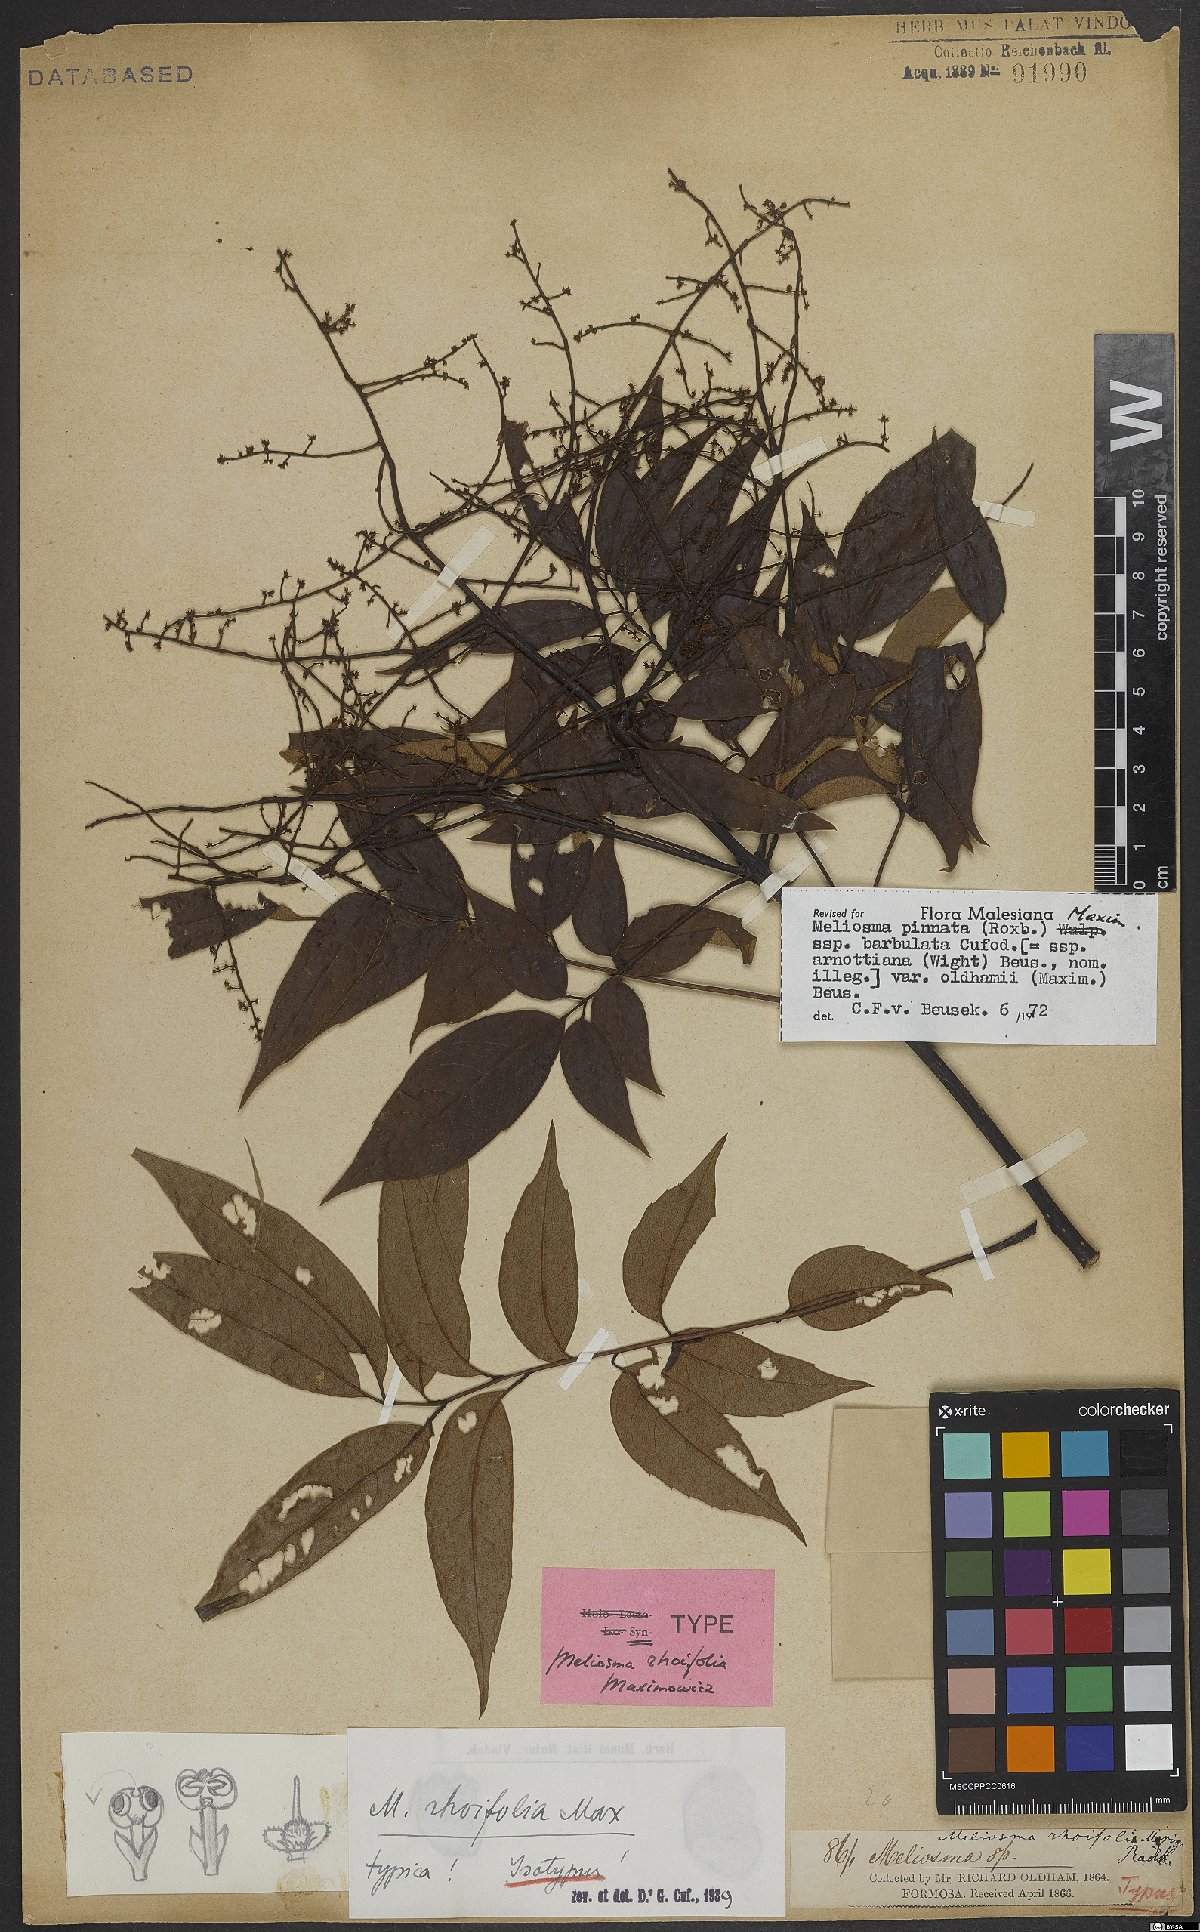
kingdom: Plantae
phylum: Tracheophyta
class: Magnoliopsida
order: Proteales
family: Sabiaceae
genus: Meliosma
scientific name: Meliosma rhoifolia
